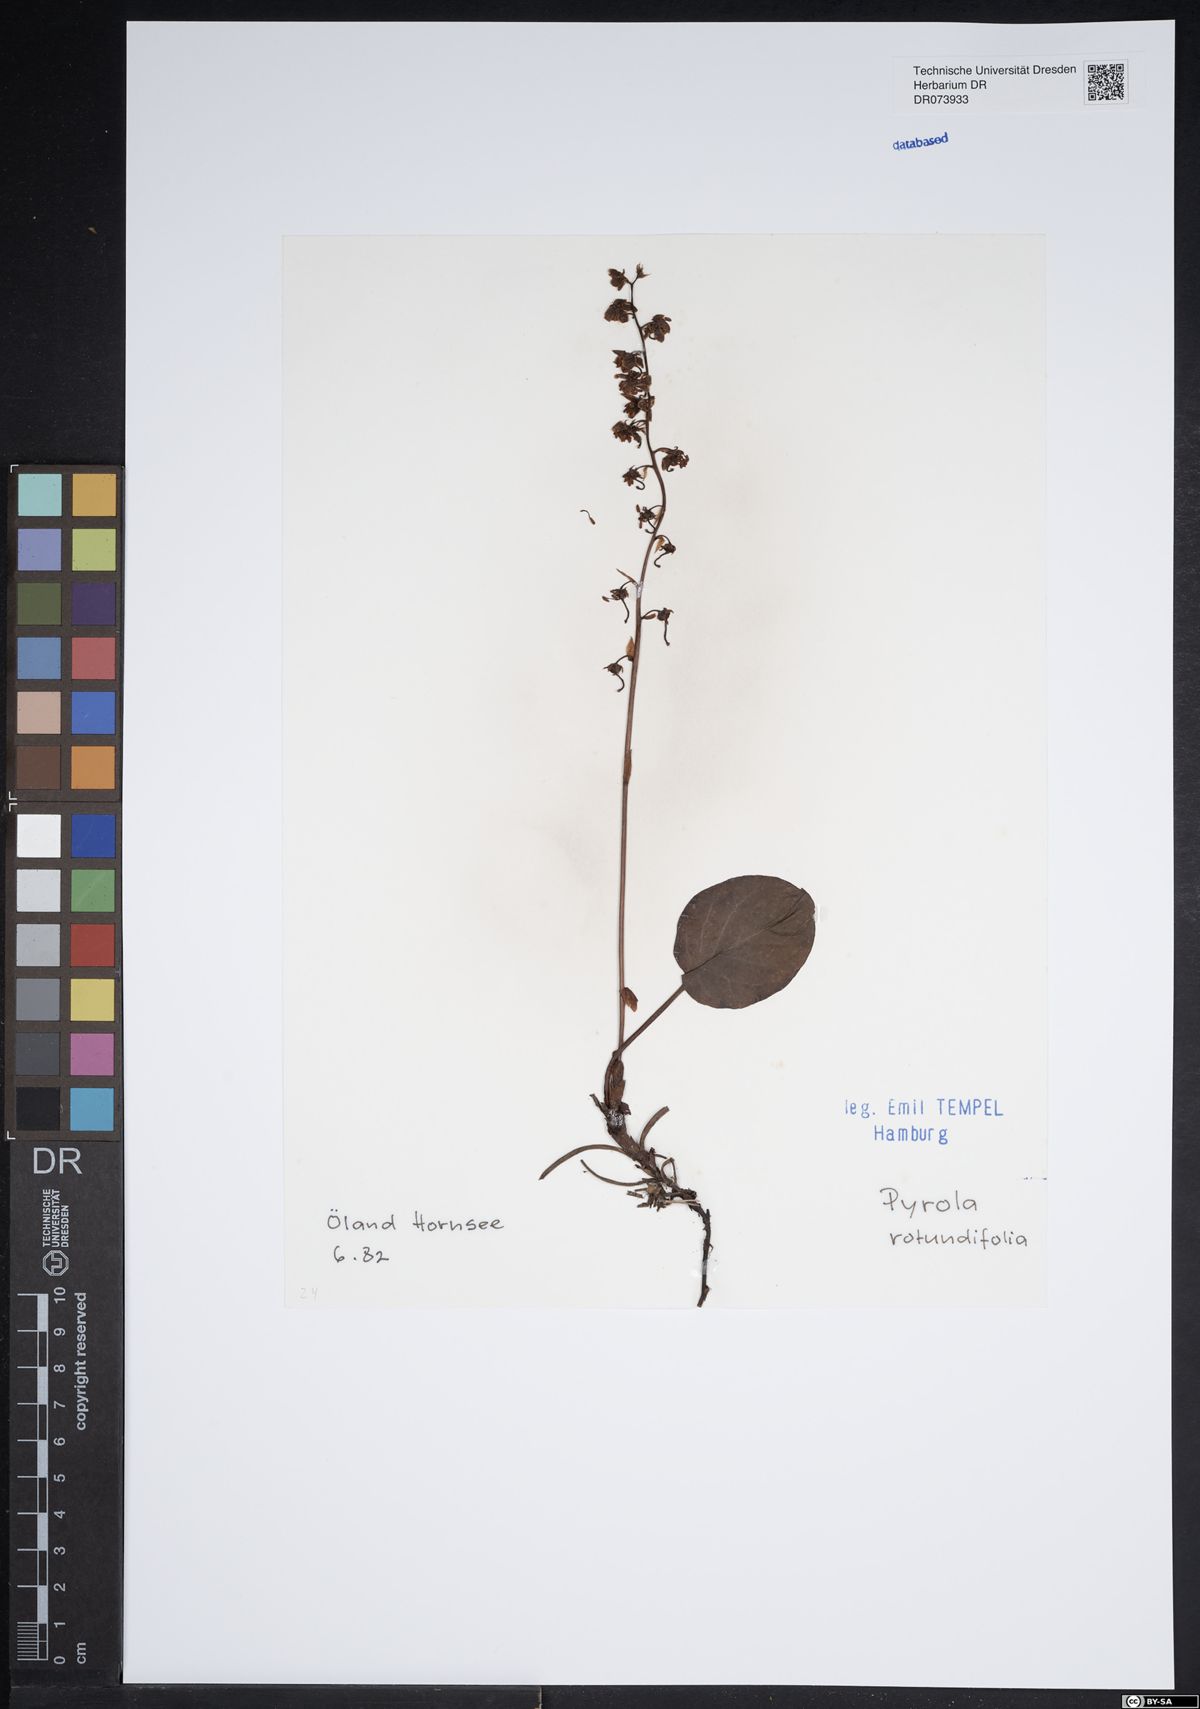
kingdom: Plantae
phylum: Tracheophyta
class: Magnoliopsida
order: Ericales
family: Ericaceae
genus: Pyrola
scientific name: Pyrola rotundifolia
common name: Round-leaved wintergreen
